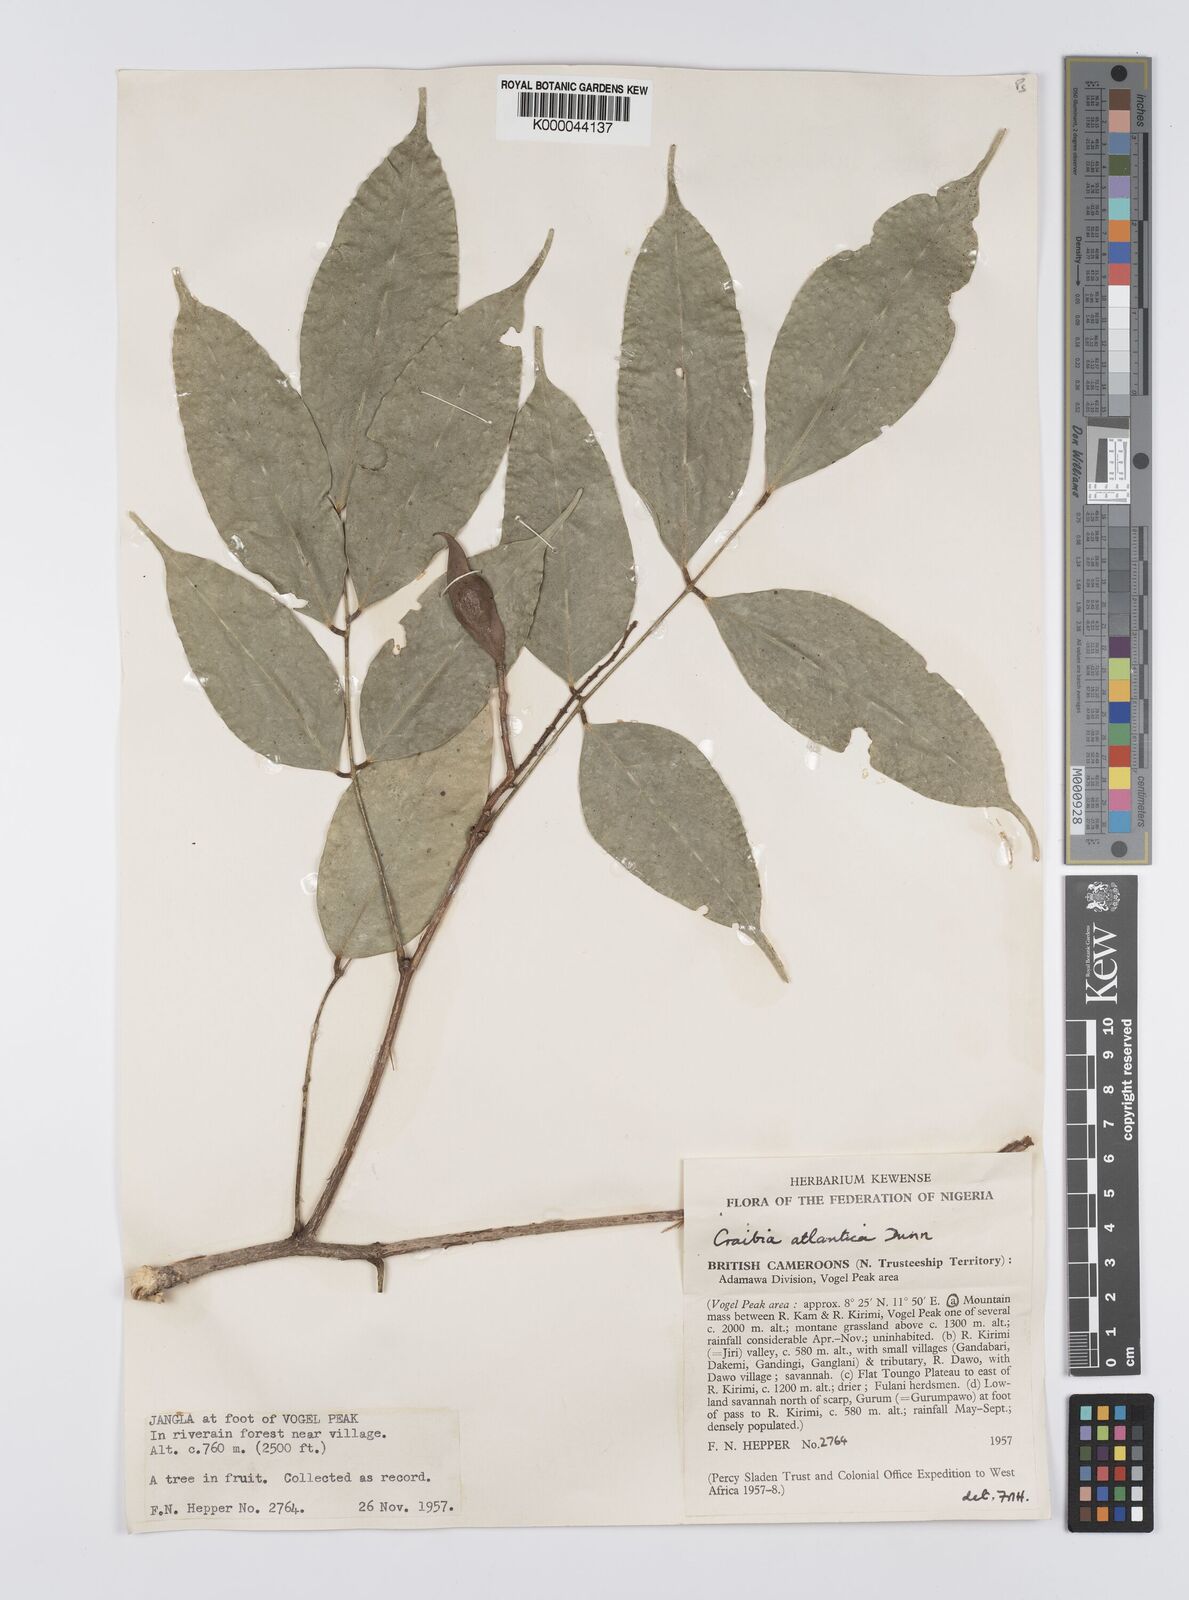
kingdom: Plantae
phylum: Tracheophyta
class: Magnoliopsida
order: Fabales
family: Fabaceae
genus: Craibia
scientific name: Craibia atlantica
